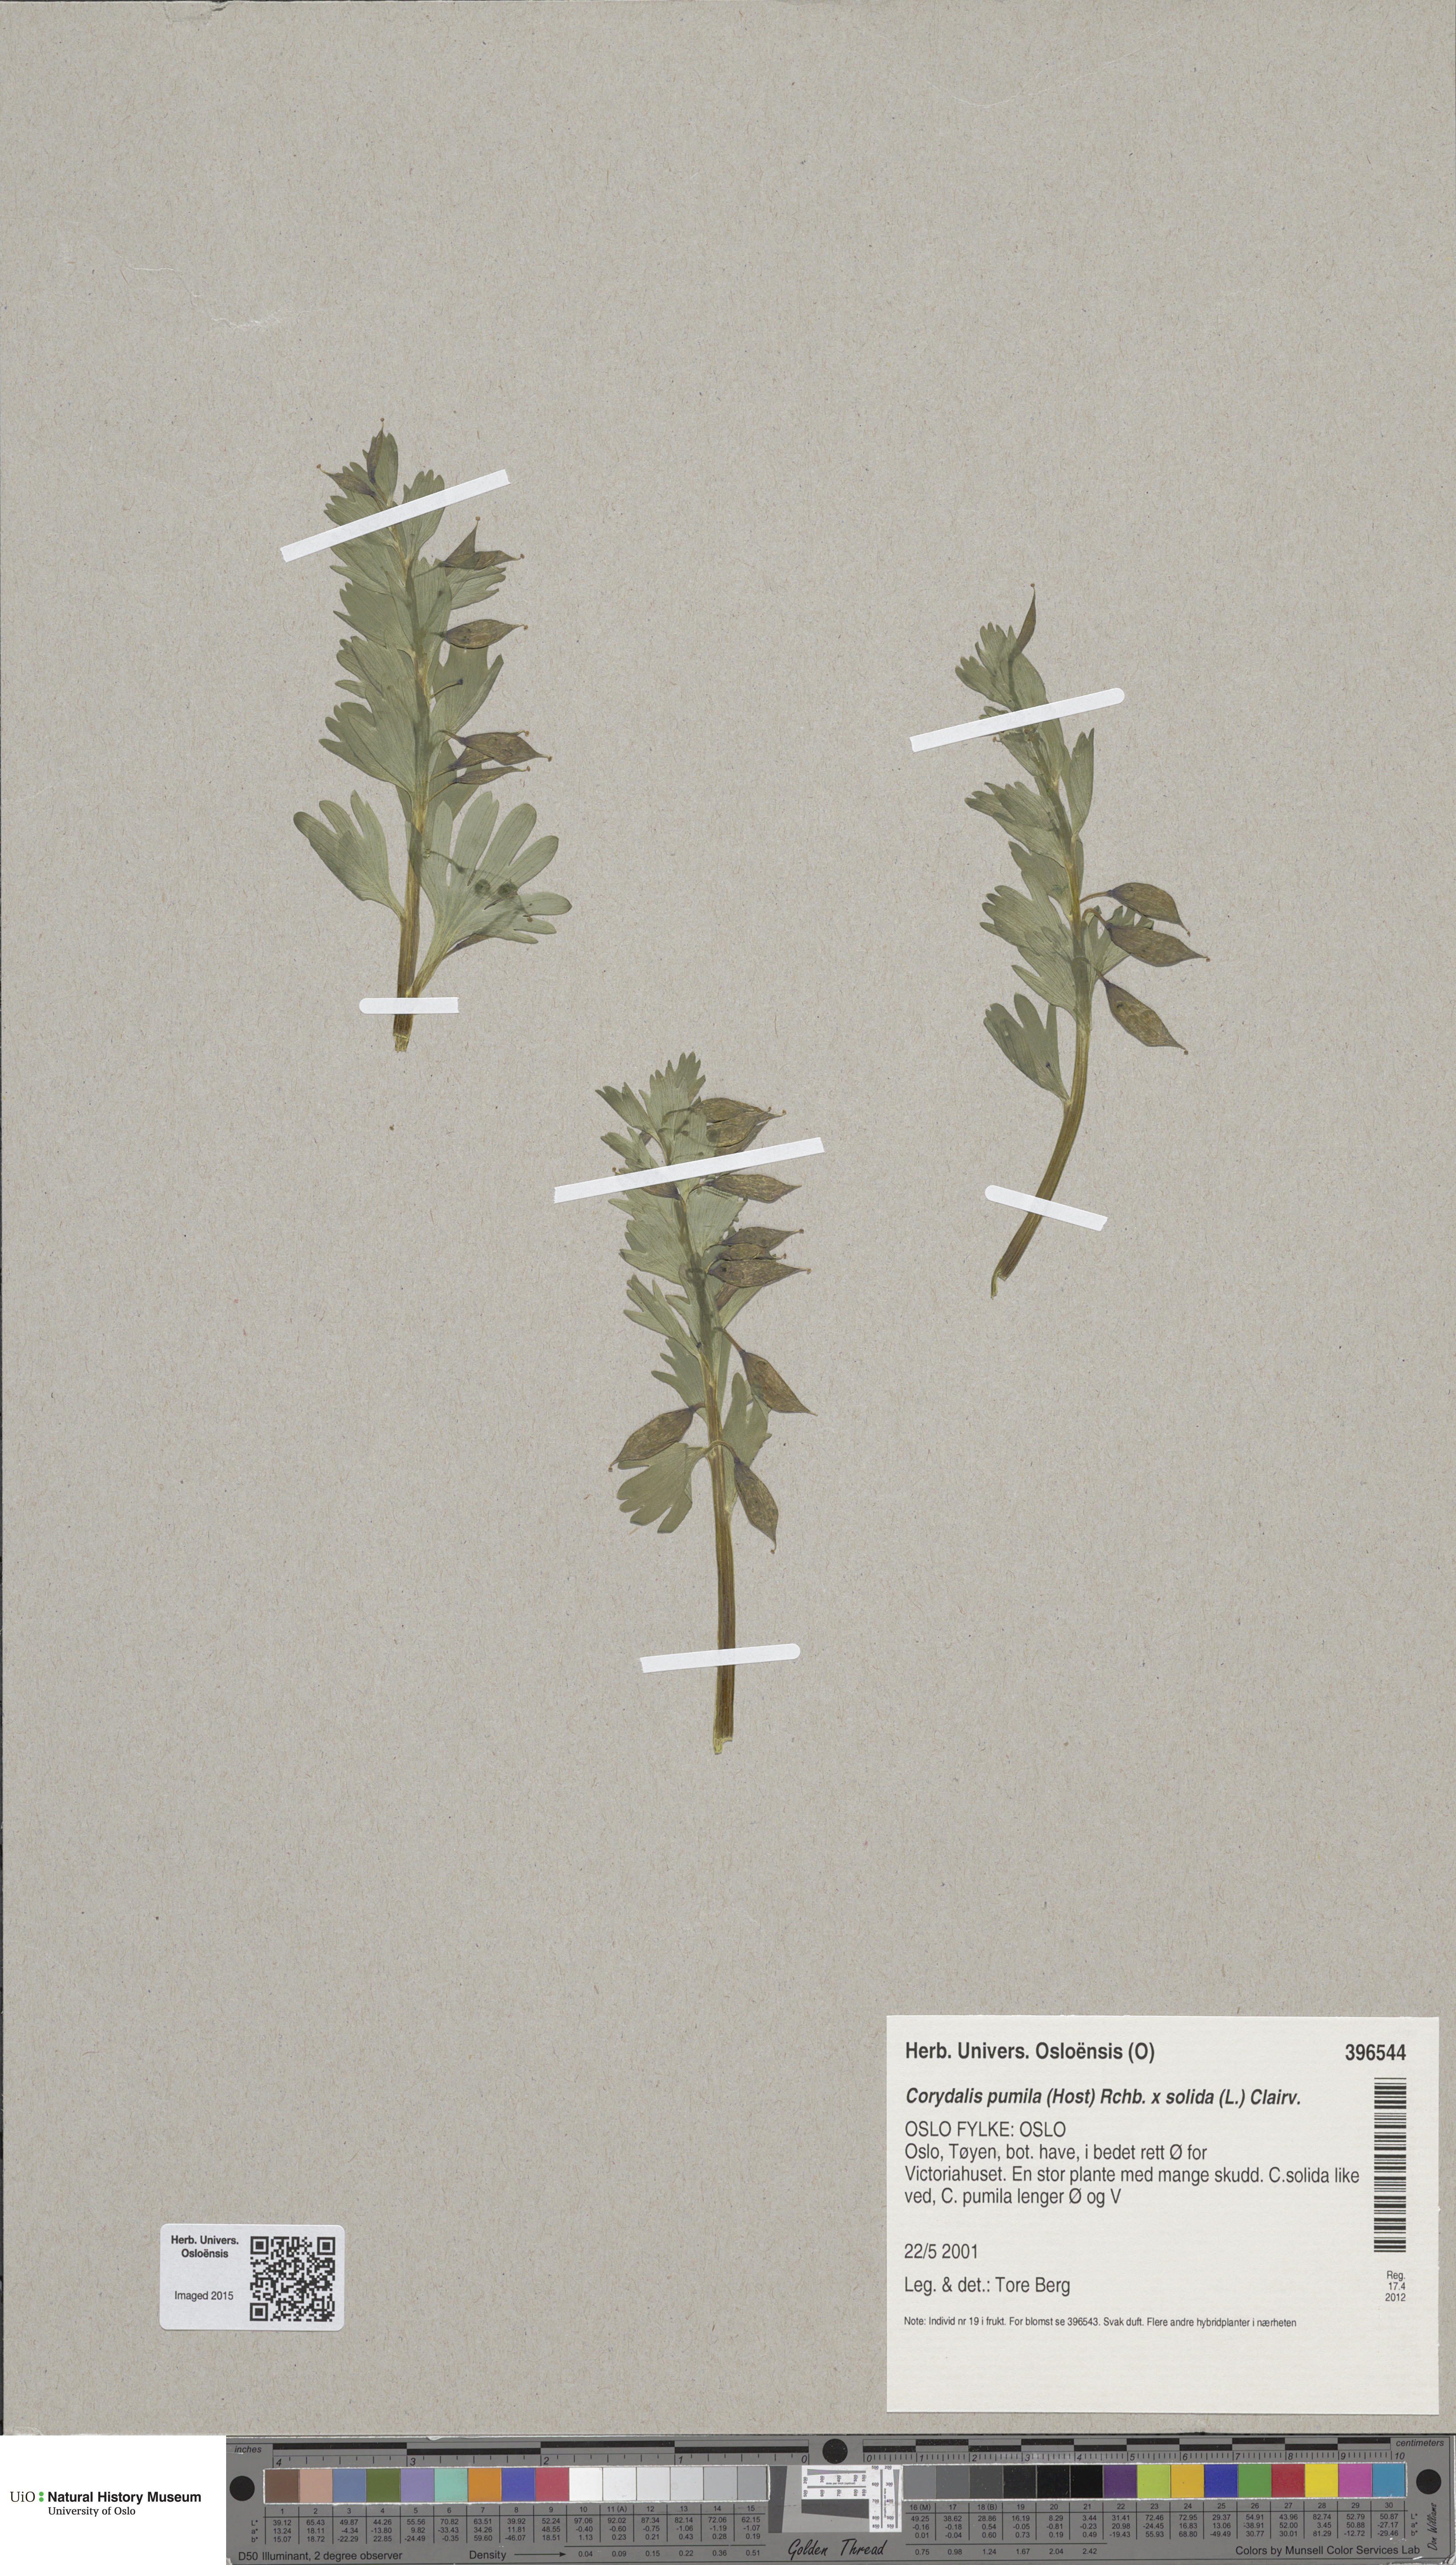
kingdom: Plantae
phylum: Tracheophyta
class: Magnoliopsida
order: Ranunculales
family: Papaveraceae
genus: Corydalis
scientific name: Corydalis
